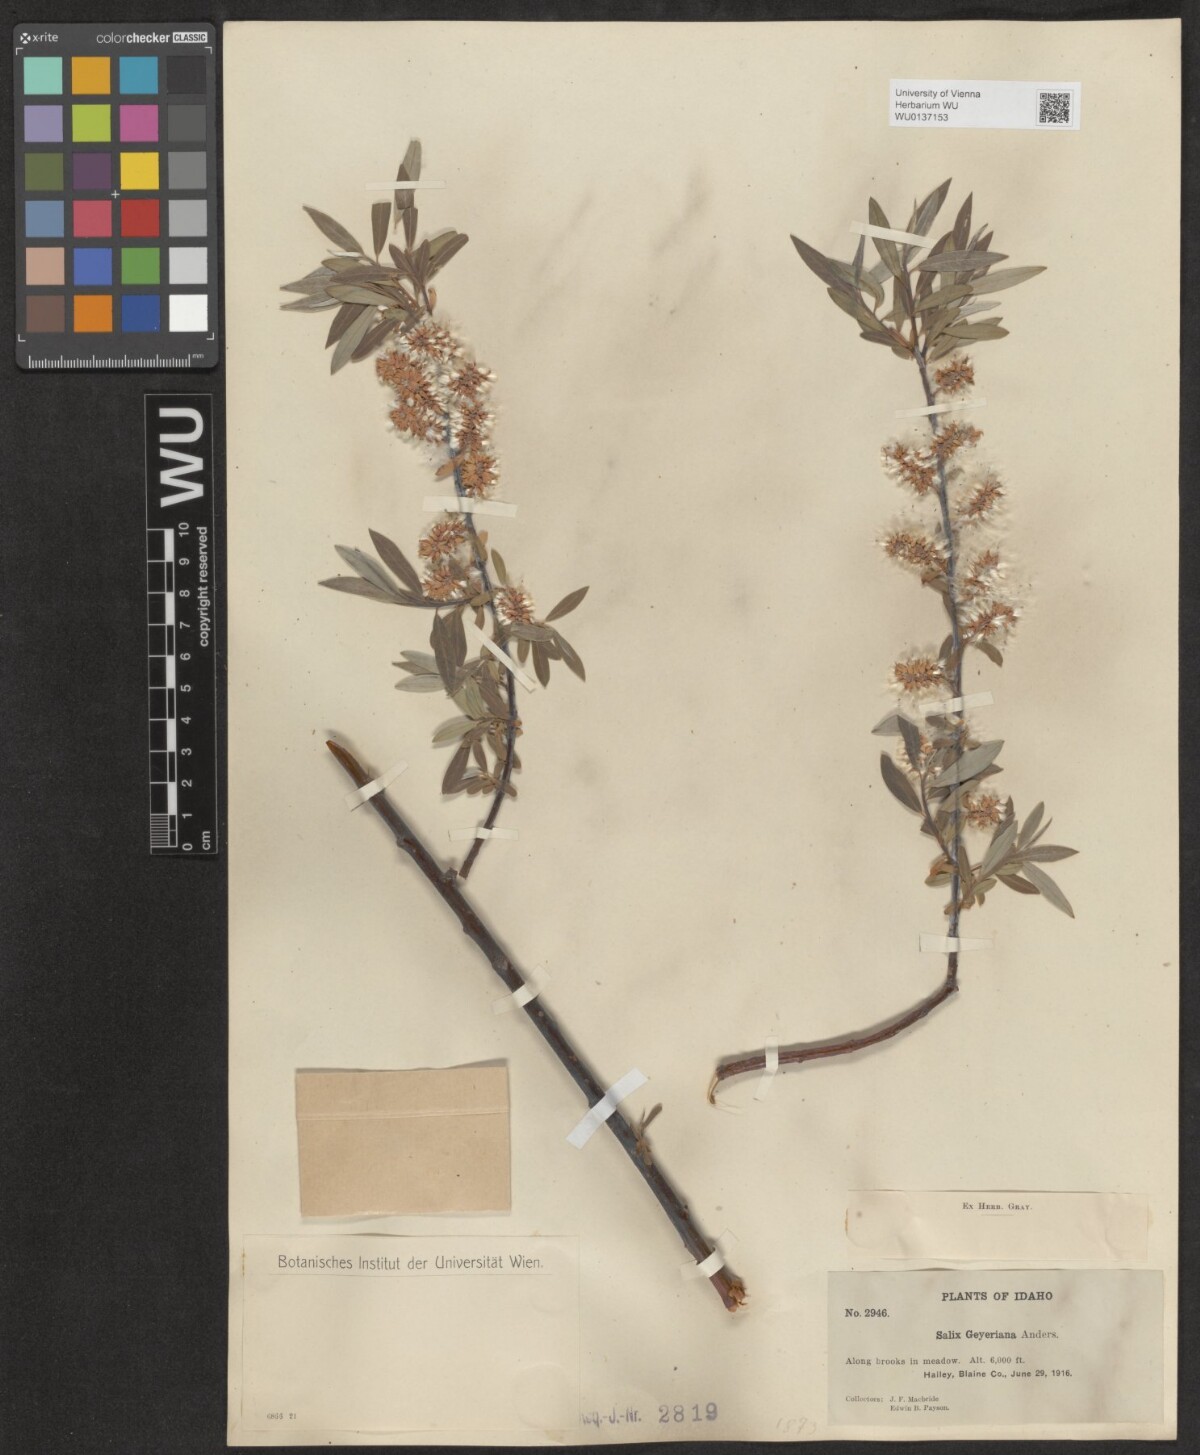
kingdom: Plantae
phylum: Tracheophyta
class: Magnoliopsida
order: Malpighiales
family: Salicaceae
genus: Salix
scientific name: Salix geyeriana
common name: Geyer's willow
